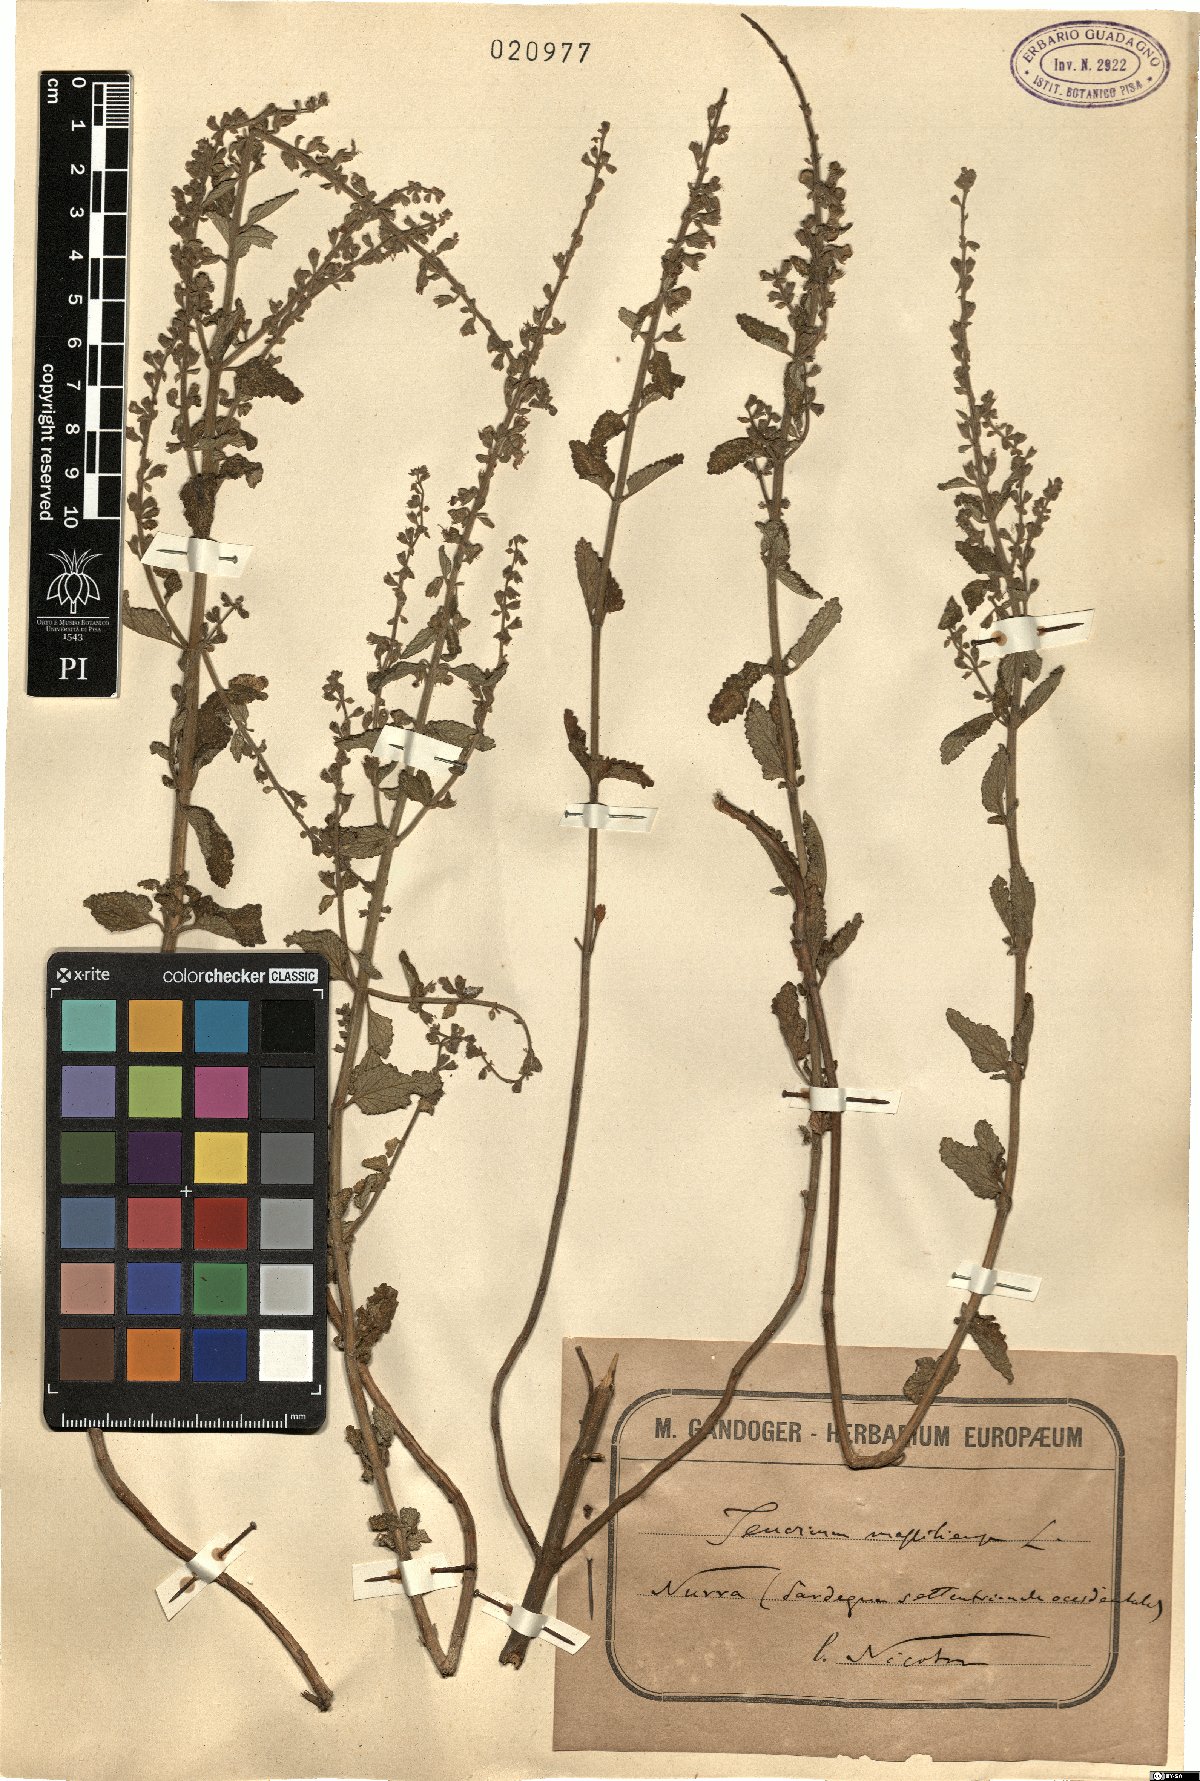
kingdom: Plantae
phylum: Tracheophyta
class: Magnoliopsida
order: Lamiales
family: Lamiaceae
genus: Teucrium
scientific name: Teucrium massiliense
